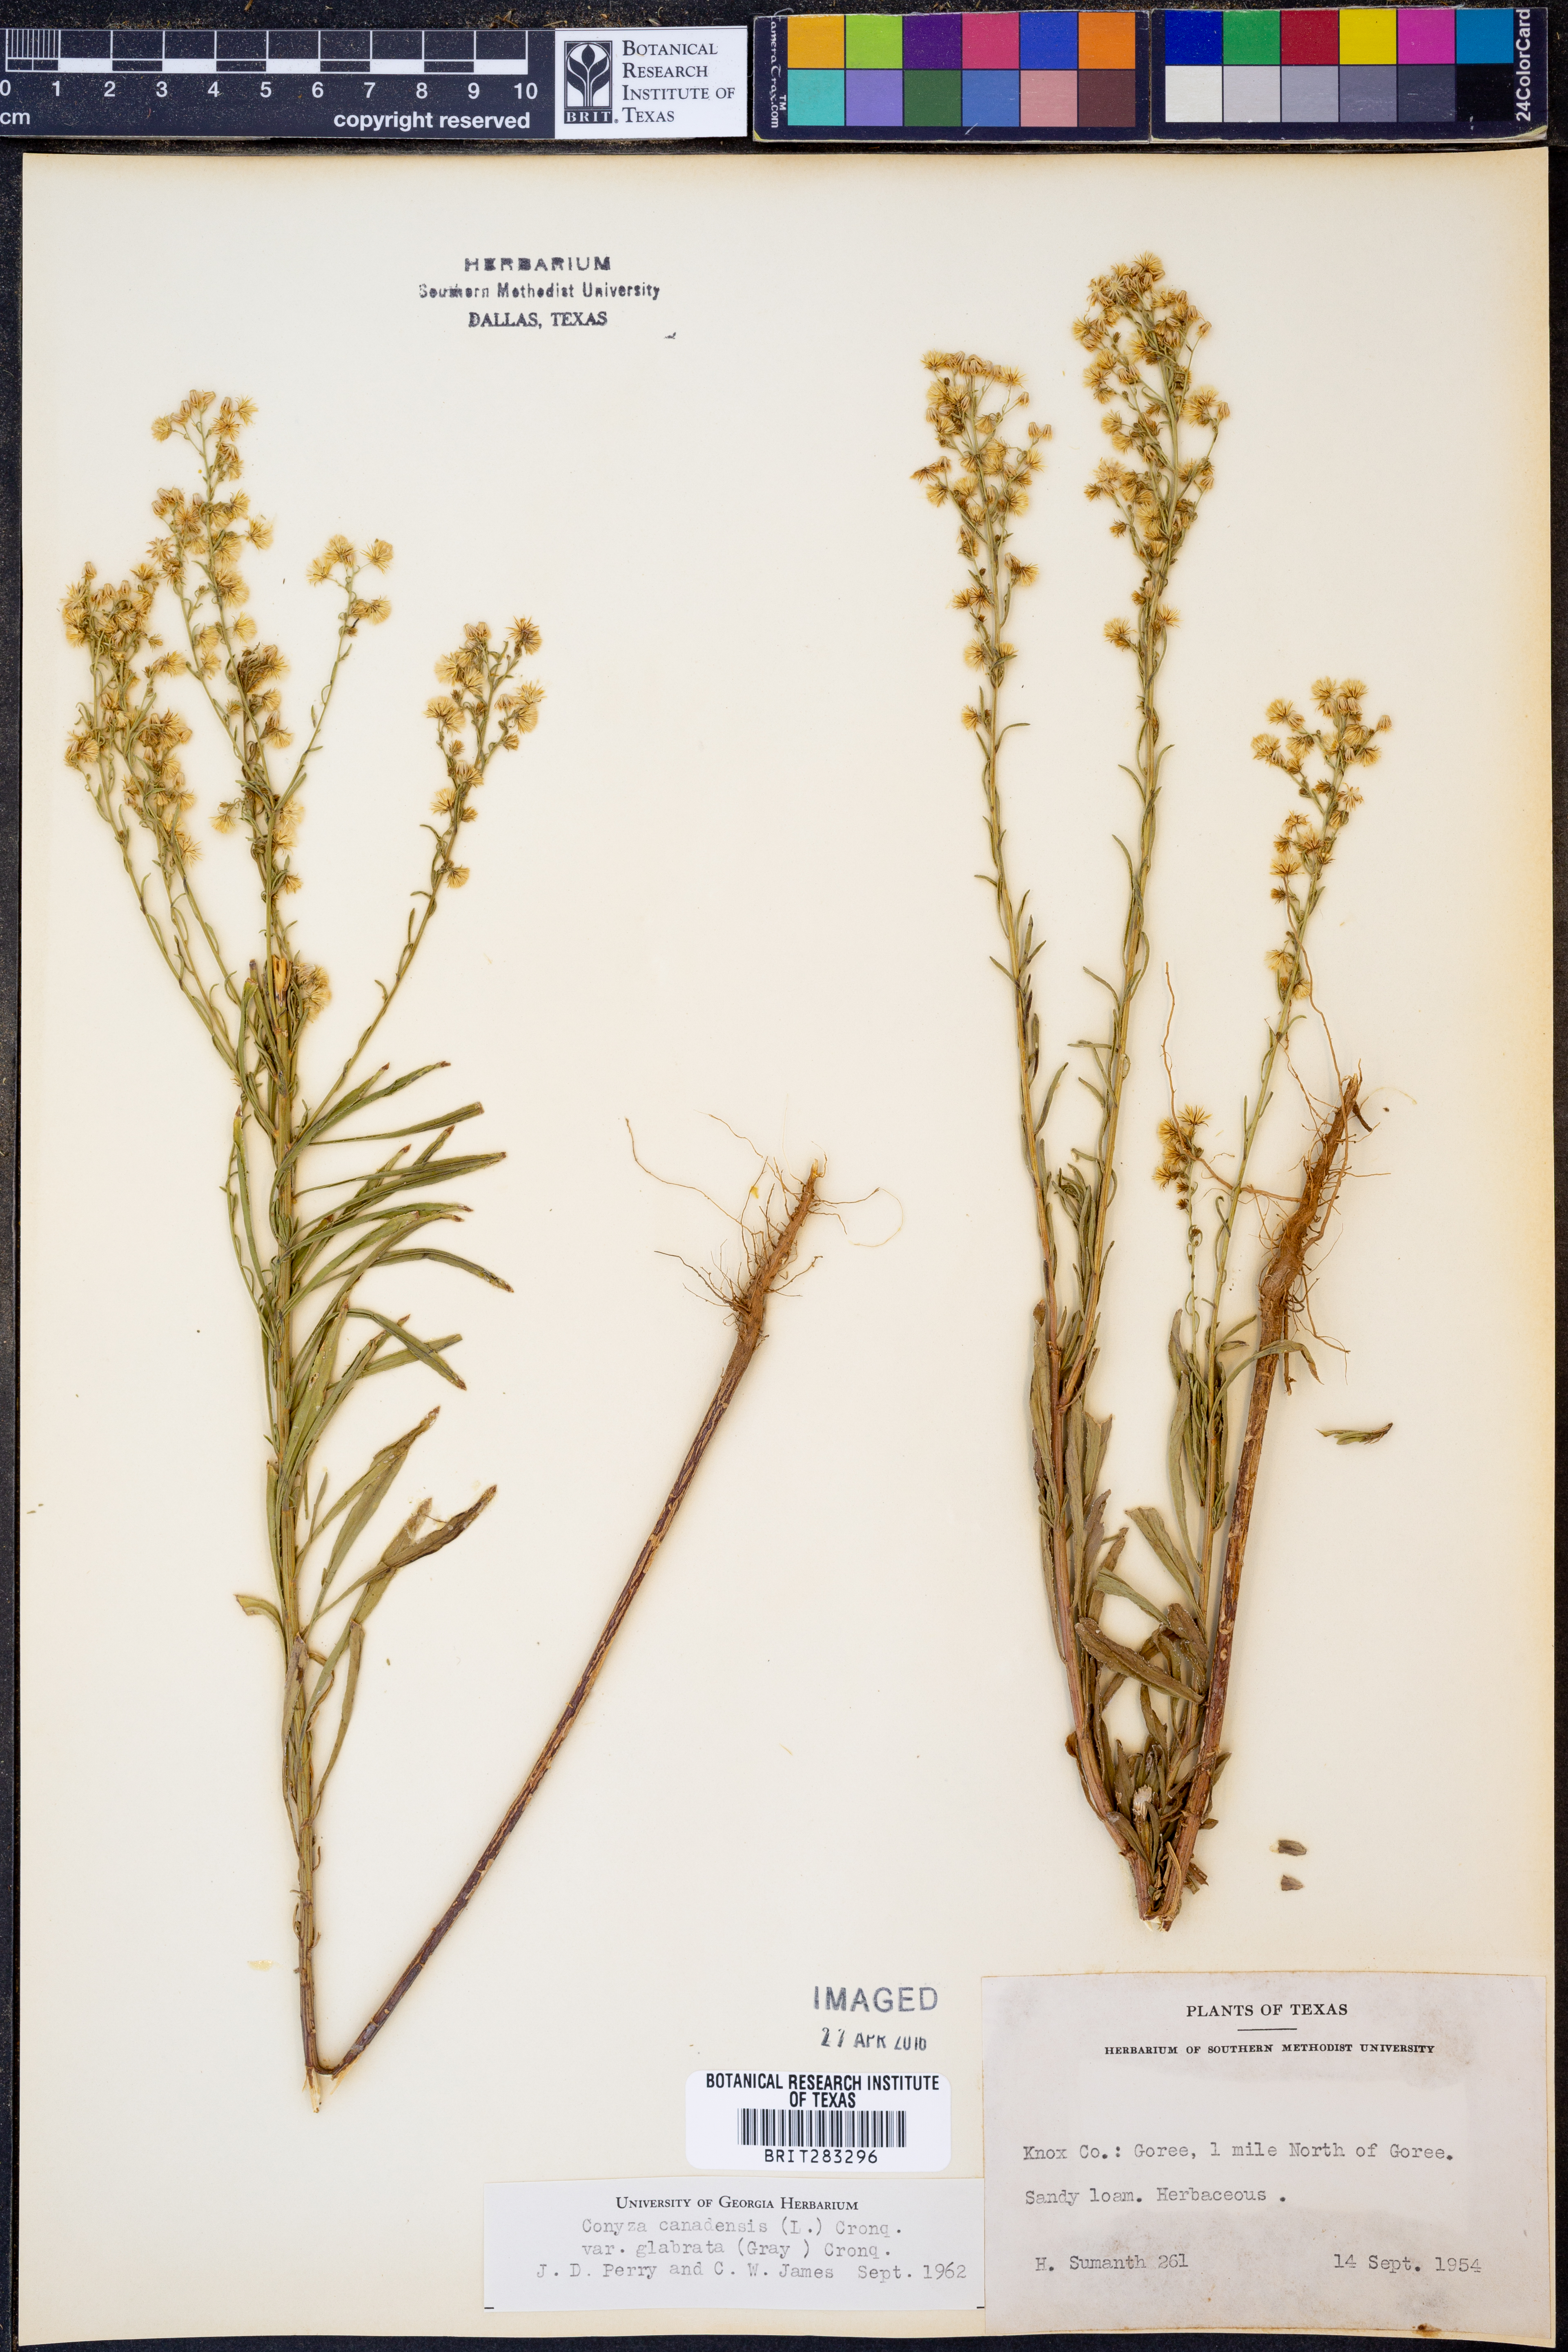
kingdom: Plantae
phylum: Tracheophyta
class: Magnoliopsida
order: Asterales
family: Asteraceae
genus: Erigeron
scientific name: Erigeron canadensis
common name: Canadian fleabane
